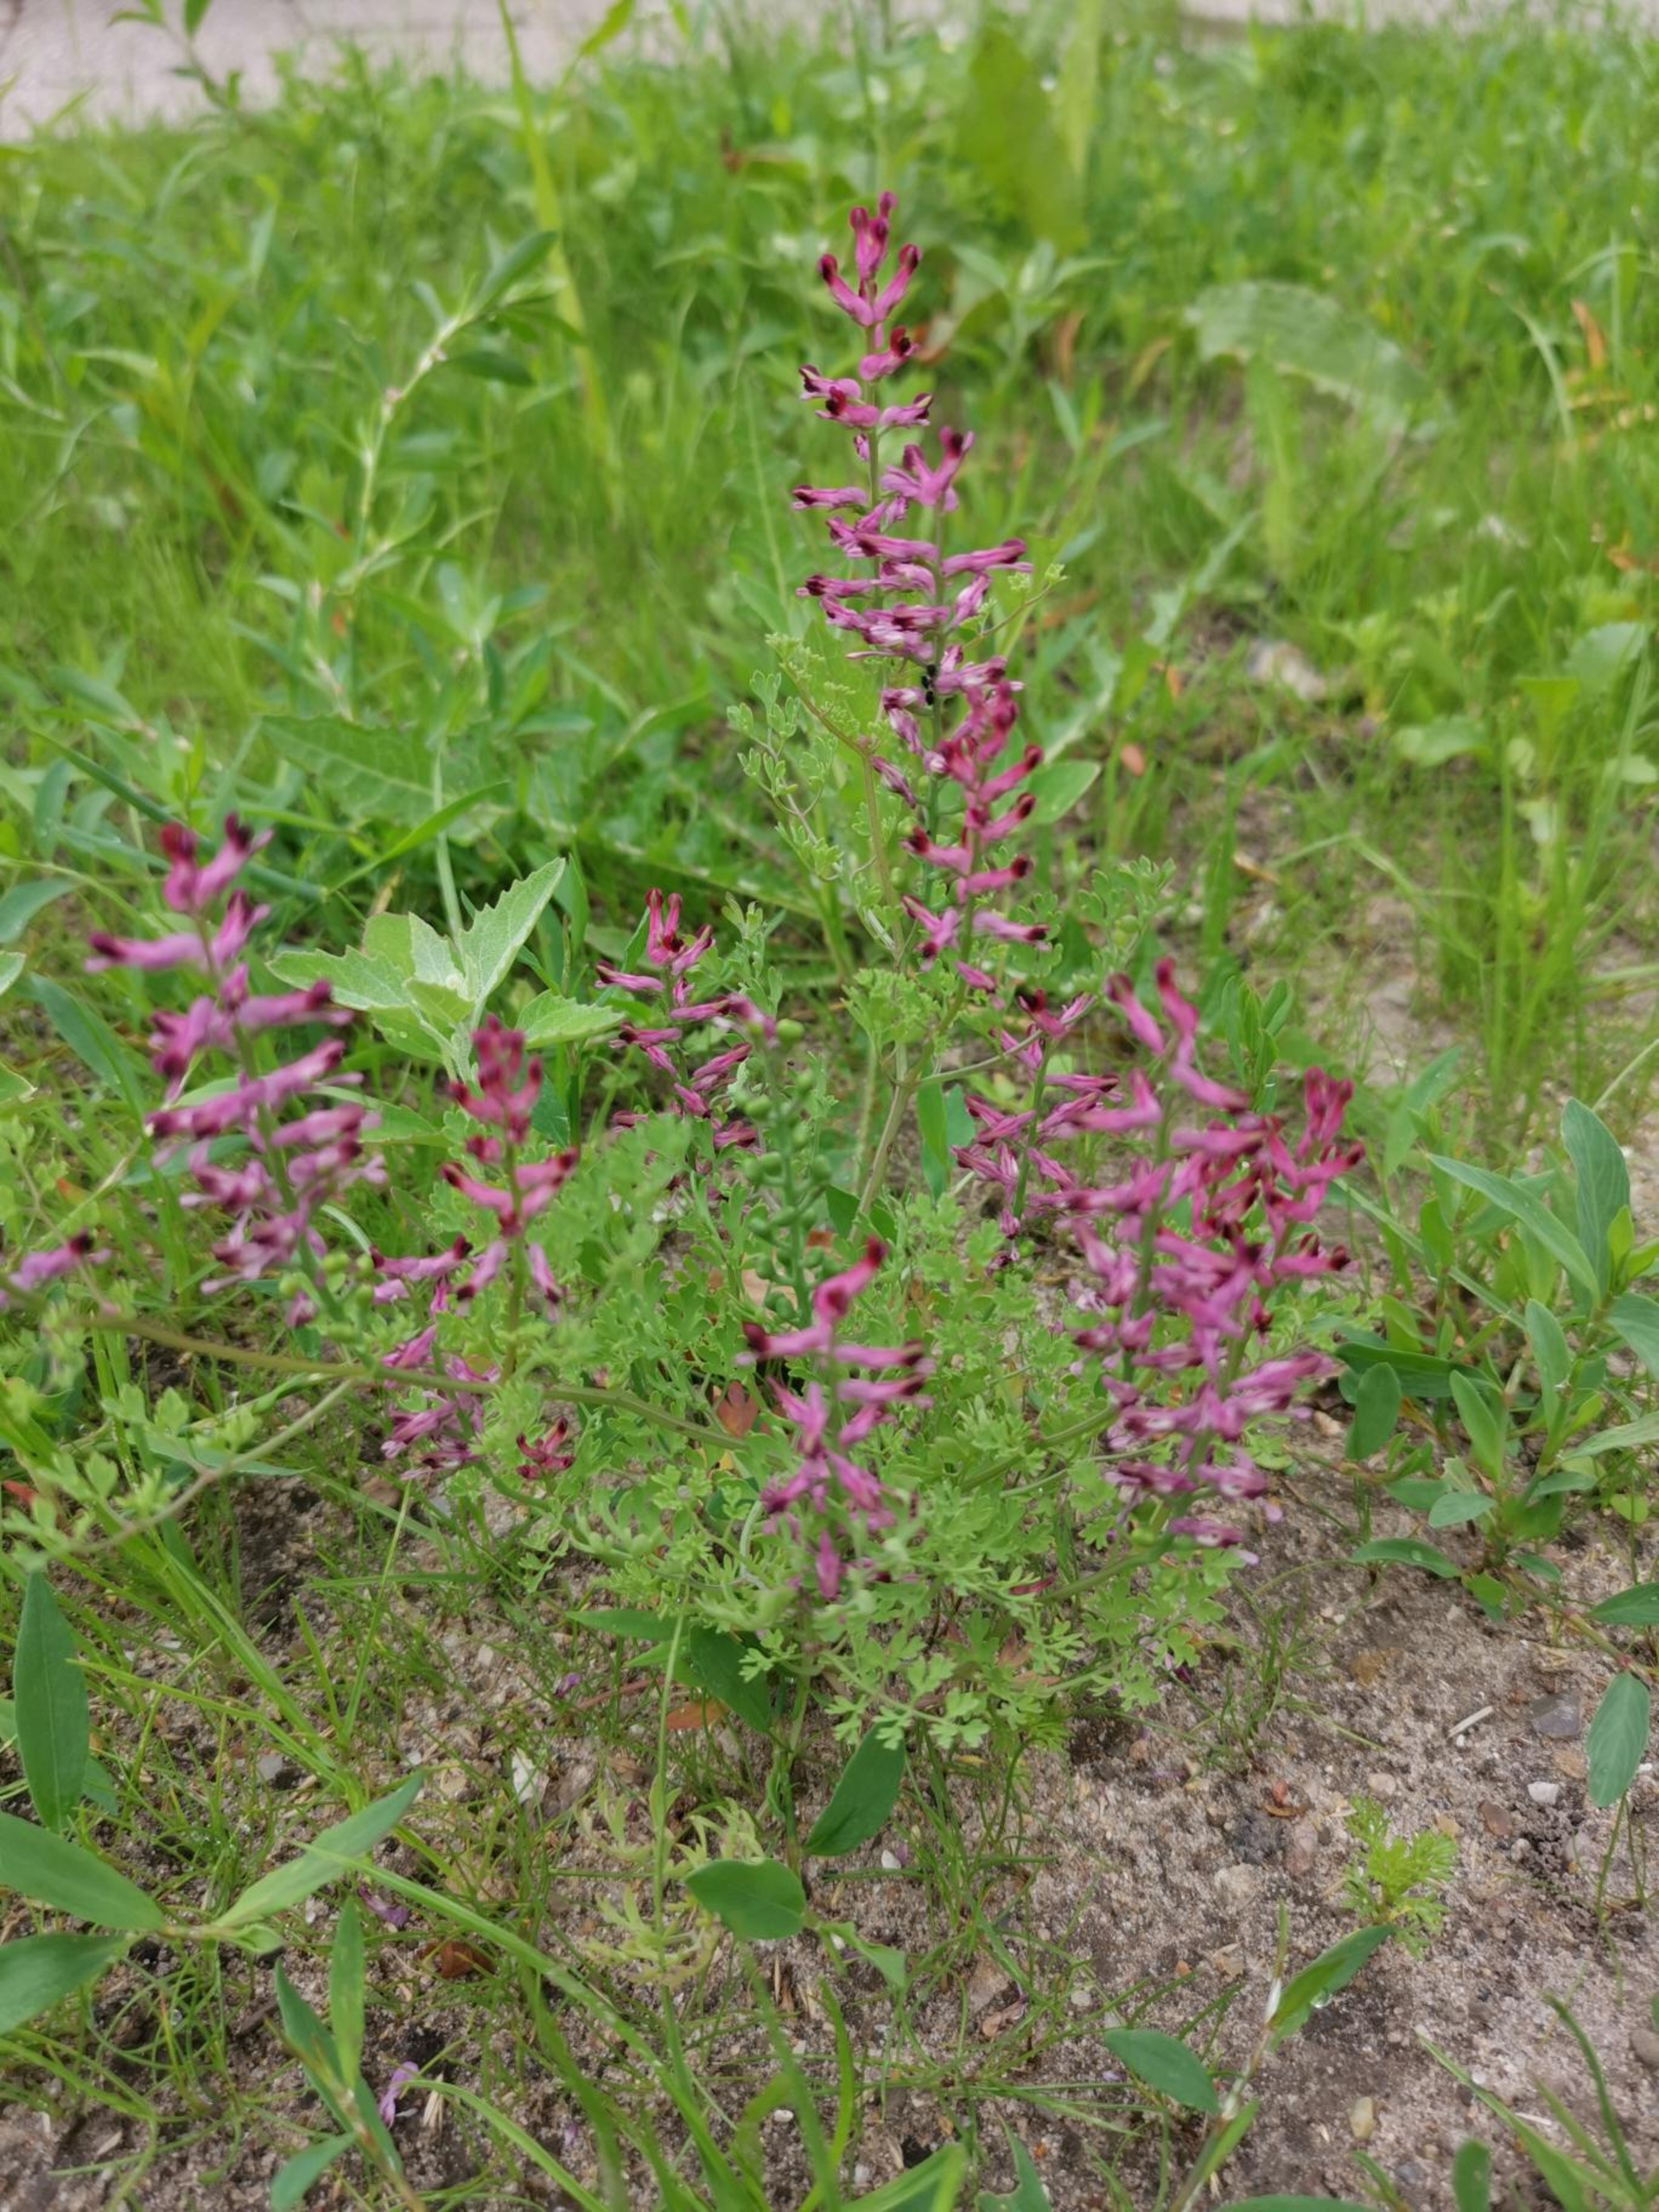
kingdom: Plantae
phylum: Tracheophyta
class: Magnoliopsida
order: Ranunculales
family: Papaveraceae
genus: Fumaria
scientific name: Fumaria officinalis
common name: Læge-jordrøg
